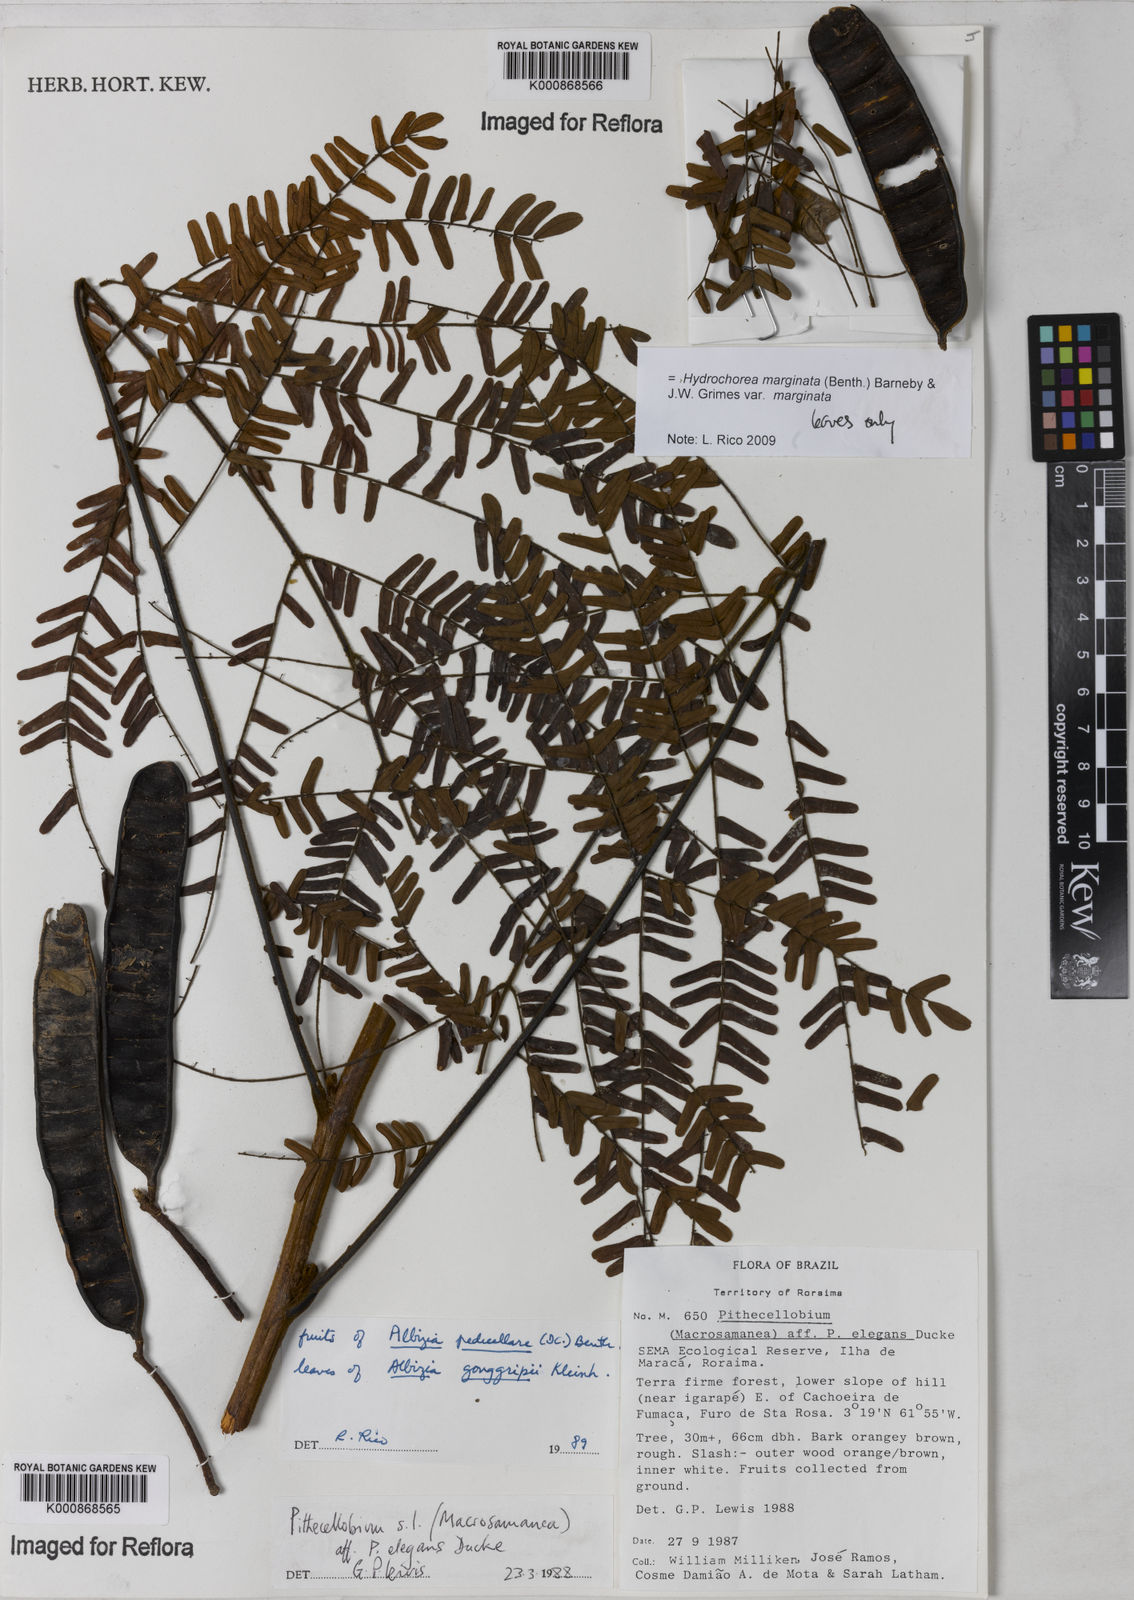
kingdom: Plantae
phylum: Tracheophyta
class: Magnoliopsida
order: Fabales
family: Fabaceae
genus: Hydrochorea
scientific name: Hydrochorea gonggrijpii
